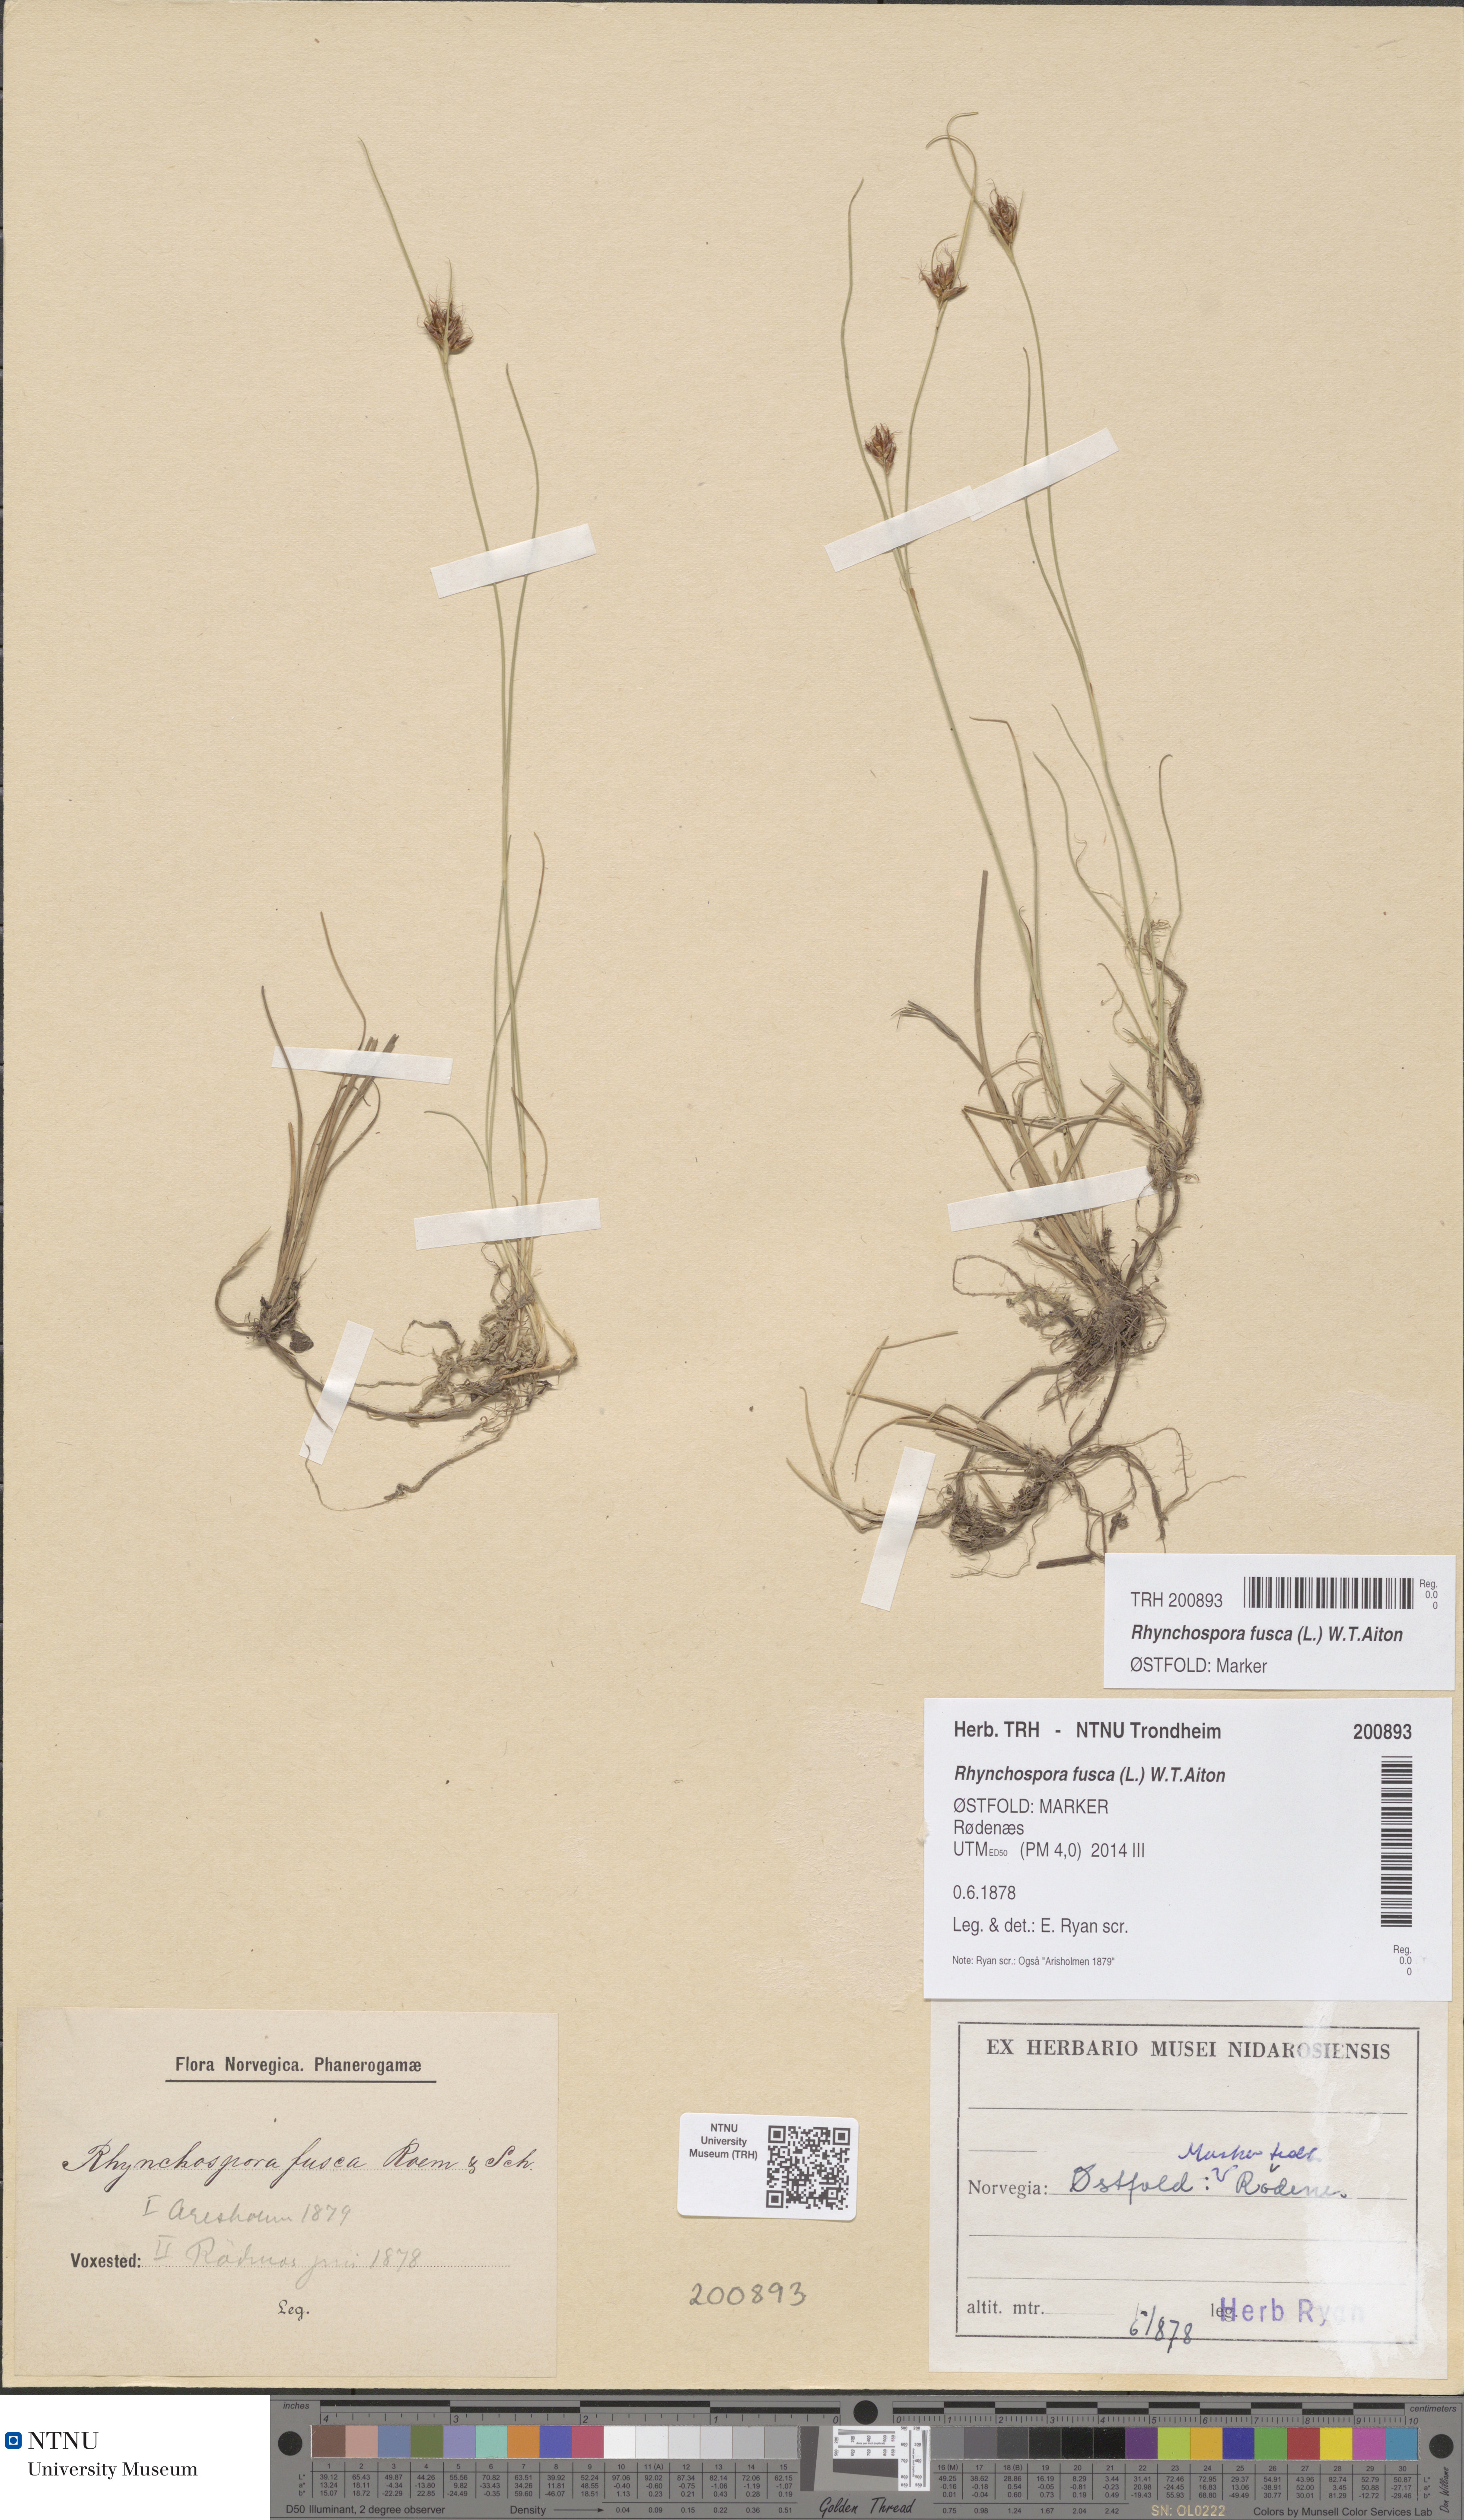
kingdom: Plantae
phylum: Tracheophyta
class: Liliopsida
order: Poales
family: Cyperaceae
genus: Rhynchospora
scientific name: Rhynchospora fusca
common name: Brown beak-sedge
